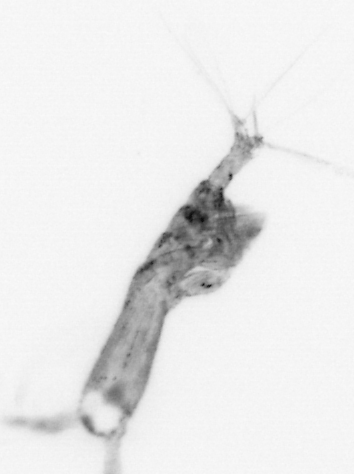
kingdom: Animalia
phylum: Arthropoda
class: Copepoda
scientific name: Copepoda
